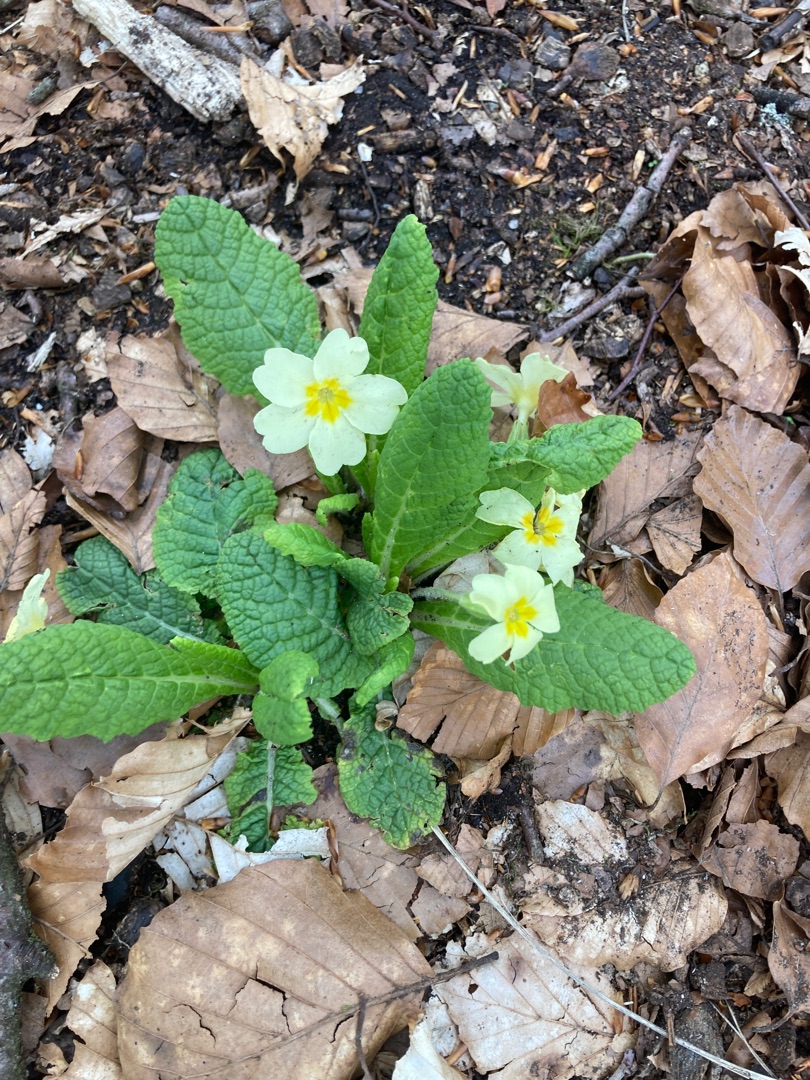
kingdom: Plantae
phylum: Tracheophyta
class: Magnoliopsida
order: Ericales
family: Primulaceae
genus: Primula
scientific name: Primula vulgaris
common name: Storblomstret kodriver
